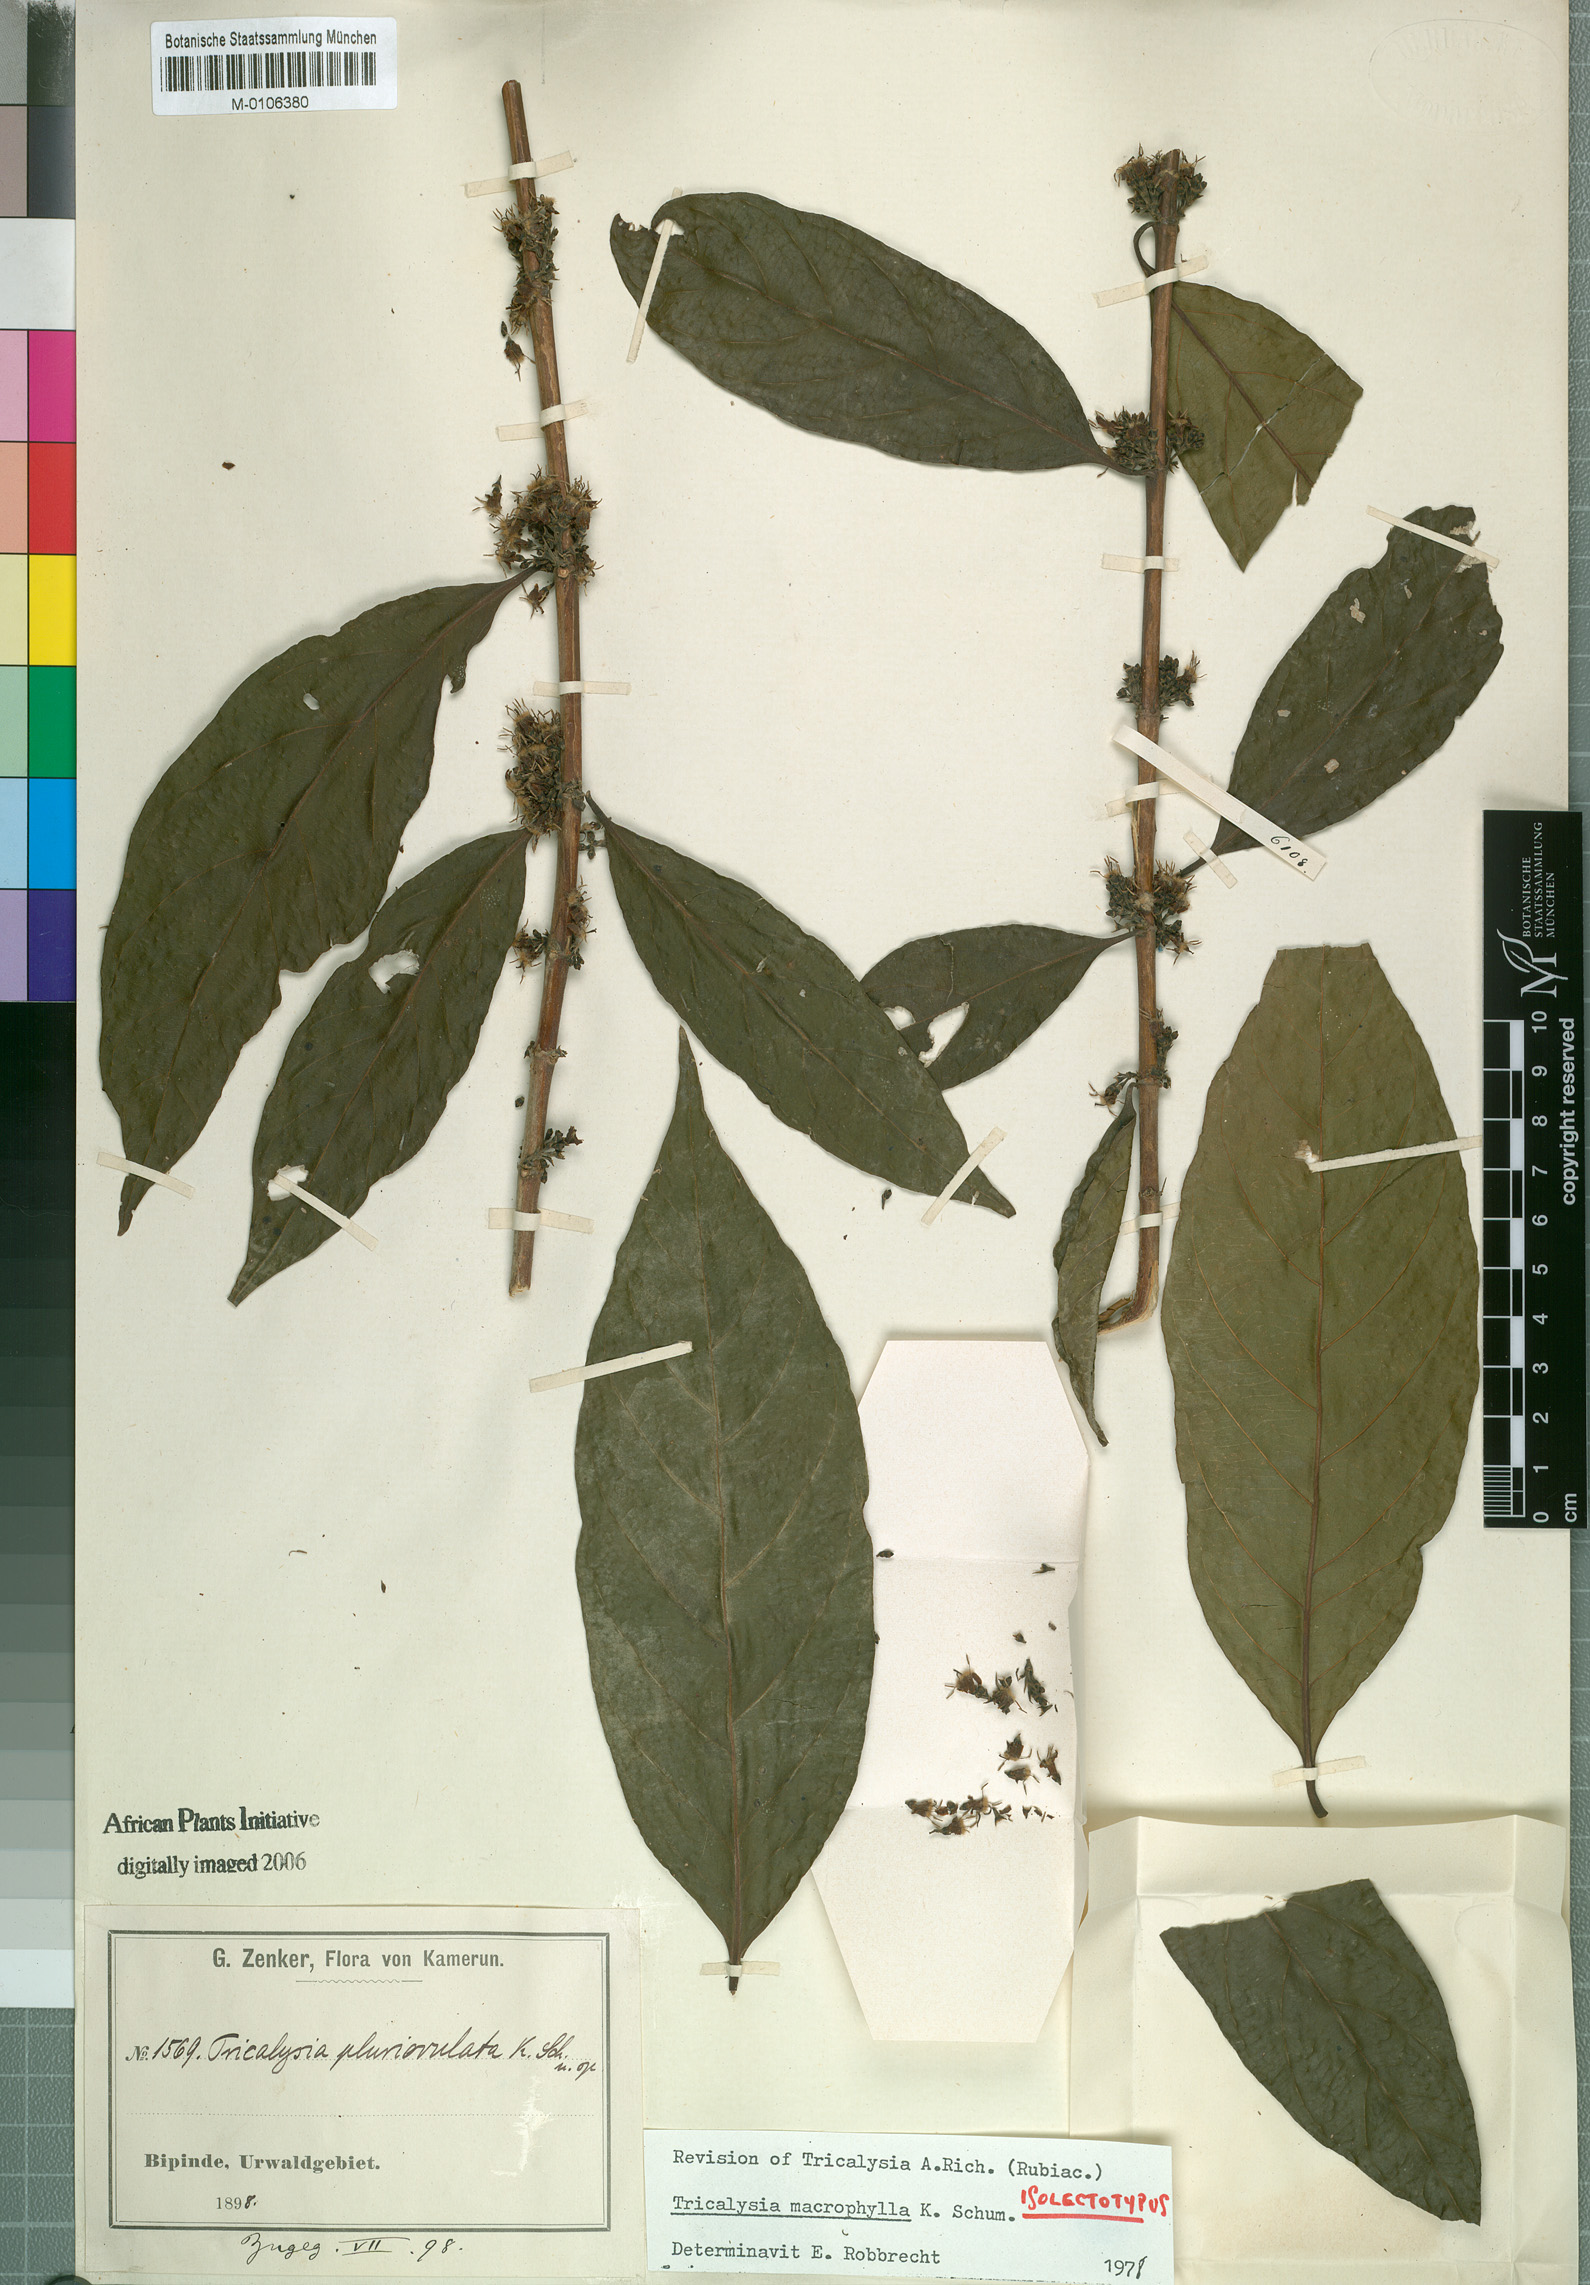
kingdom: Plantae
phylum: Tracheophyta
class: Magnoliopsida
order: Gentianales
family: Rubiaceae
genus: Empogona
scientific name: Empogona macrophylla
